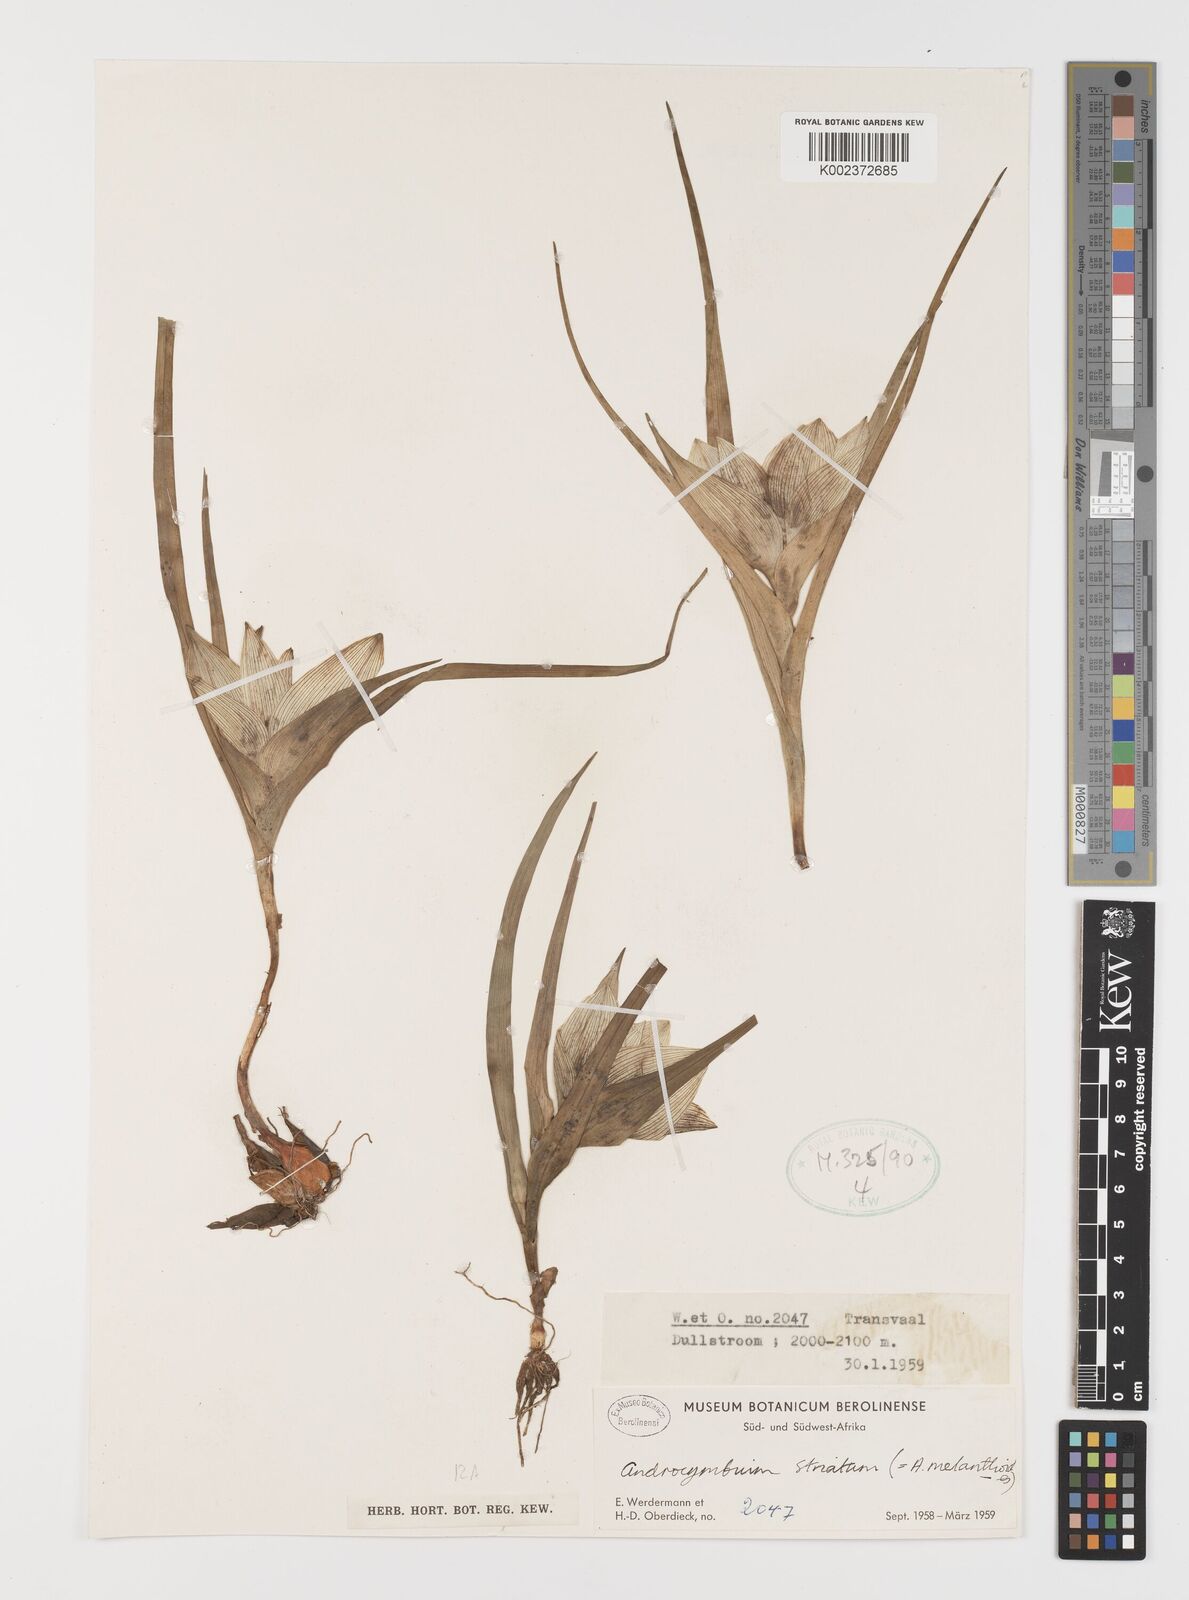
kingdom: Plantae
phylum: Tracheophyta
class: Liliopsida
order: Liliales
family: Colchicaceae
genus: Colchicum
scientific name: Colchicum striatum
